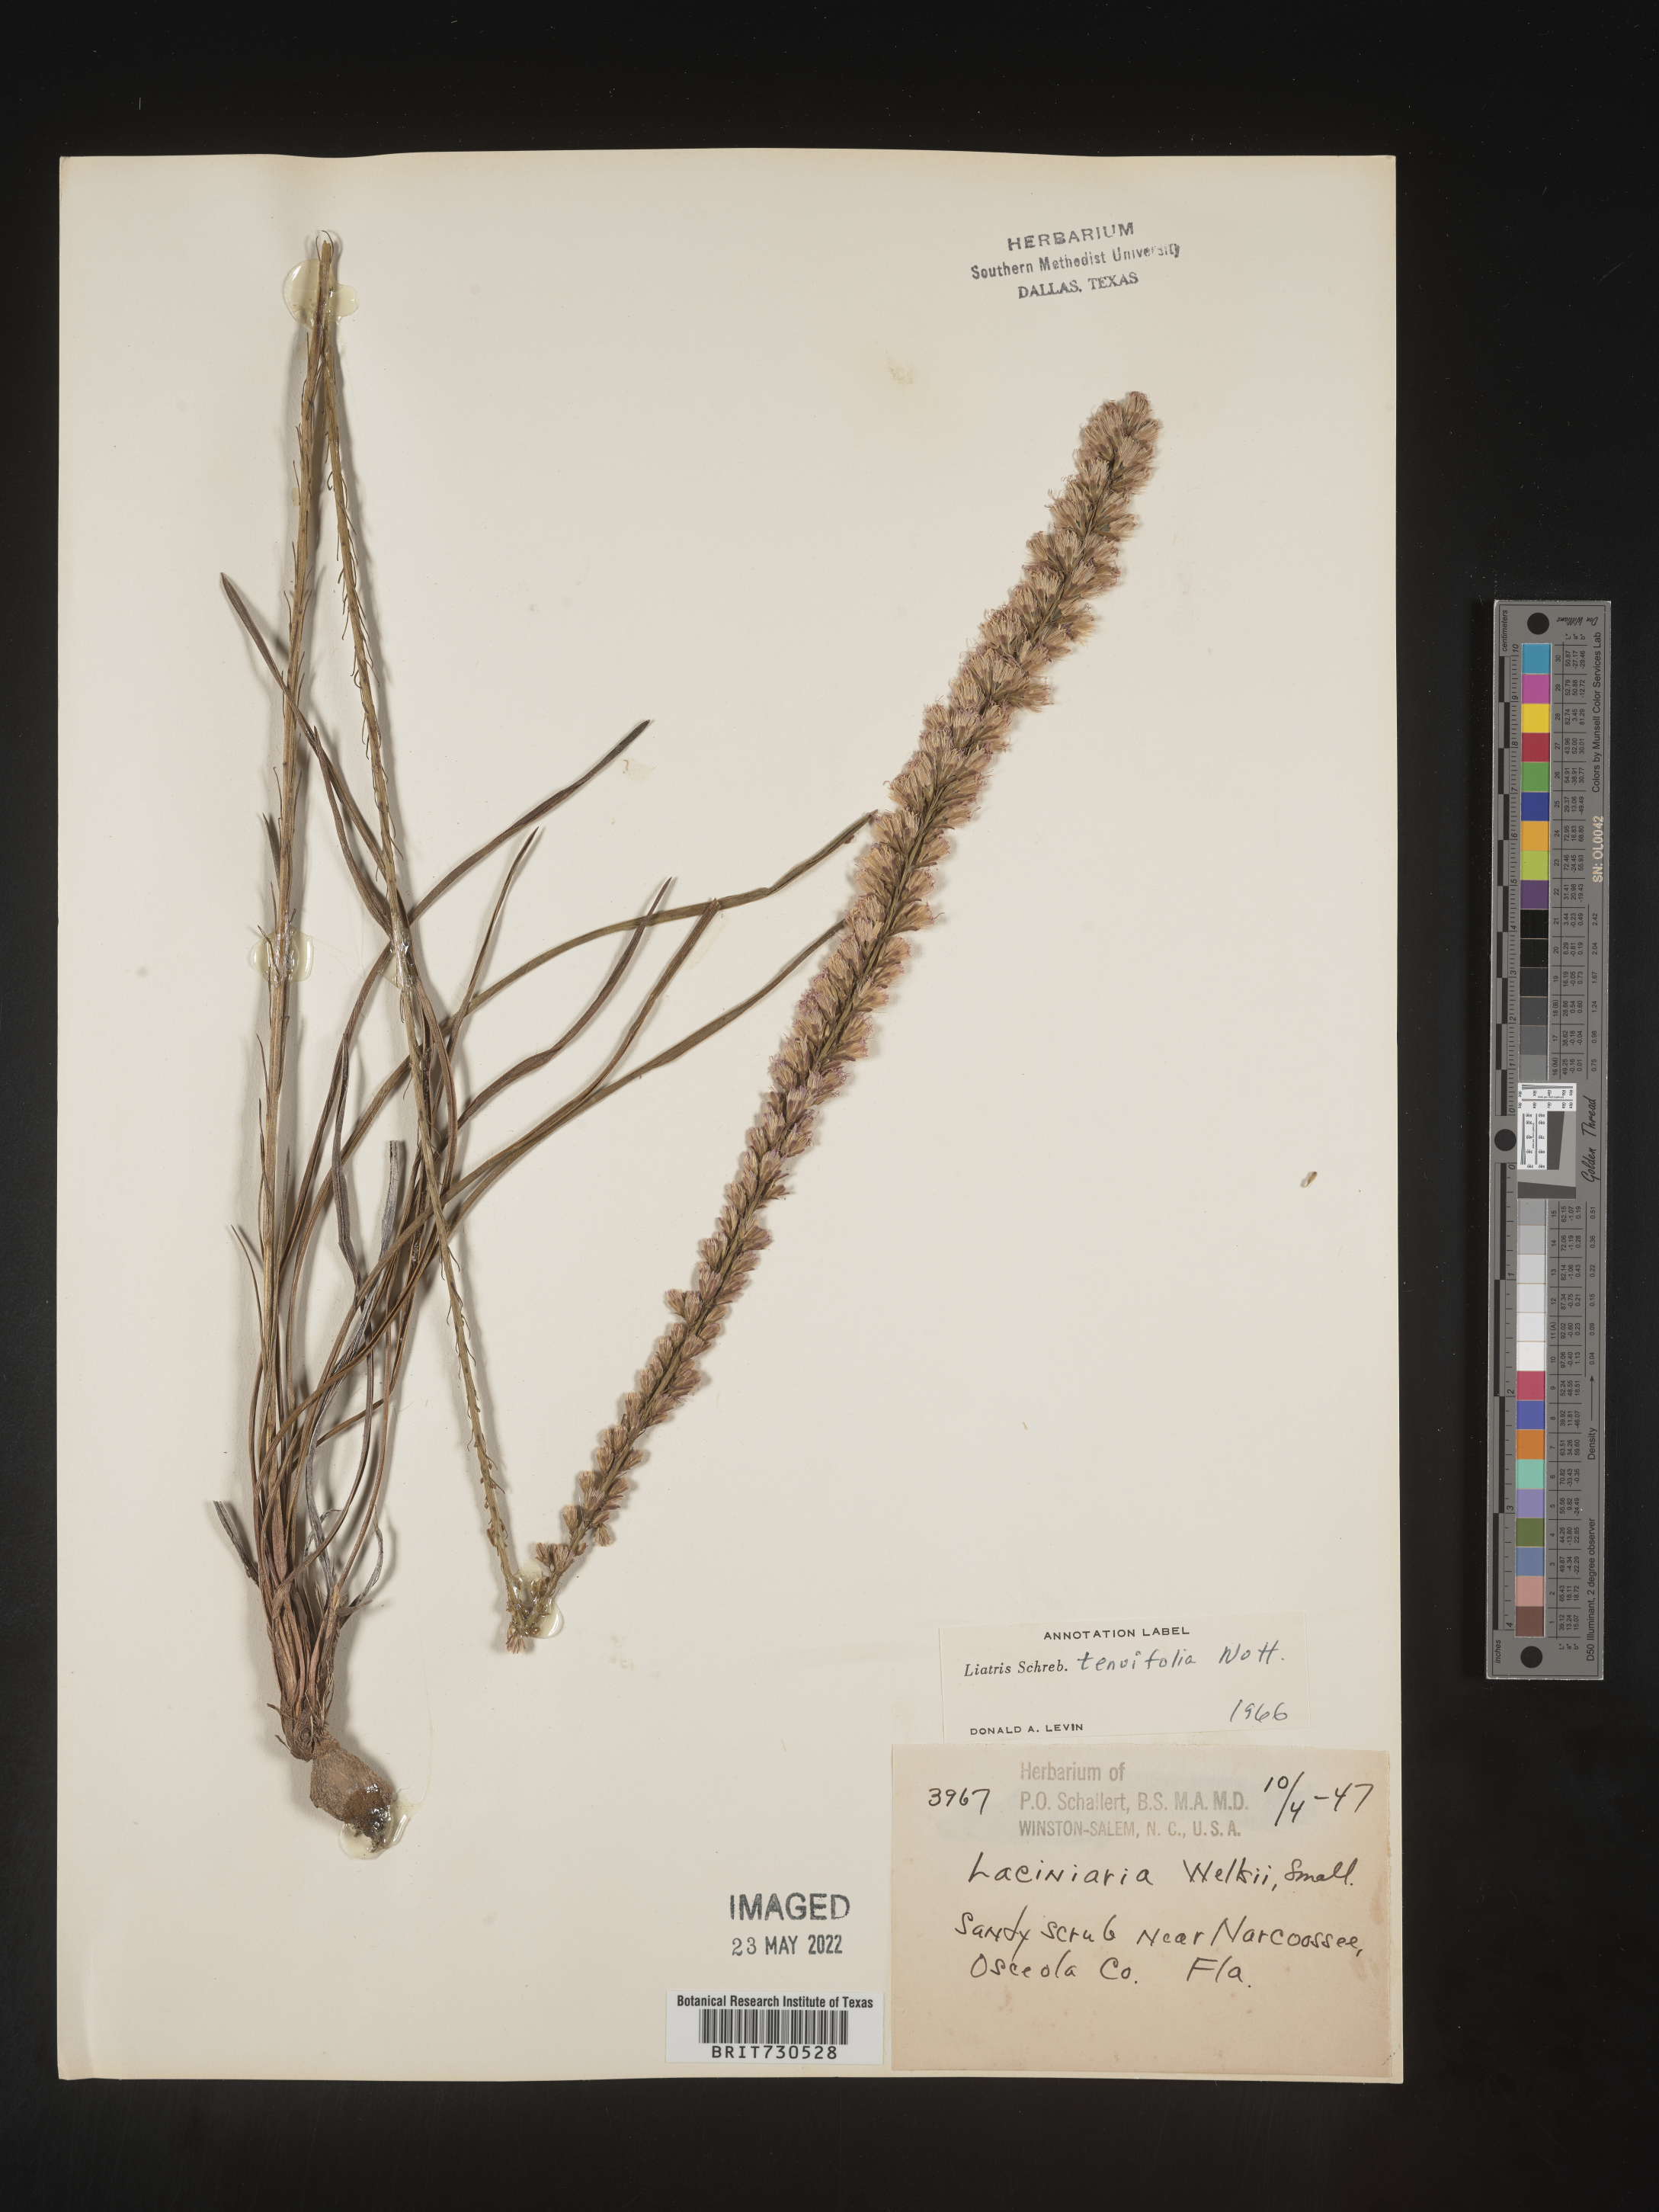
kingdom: Plantae
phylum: Tracheophyta
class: Magnoliopsida
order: Asterales
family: Asteraceae
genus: Liatris
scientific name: Liatris laevigata
